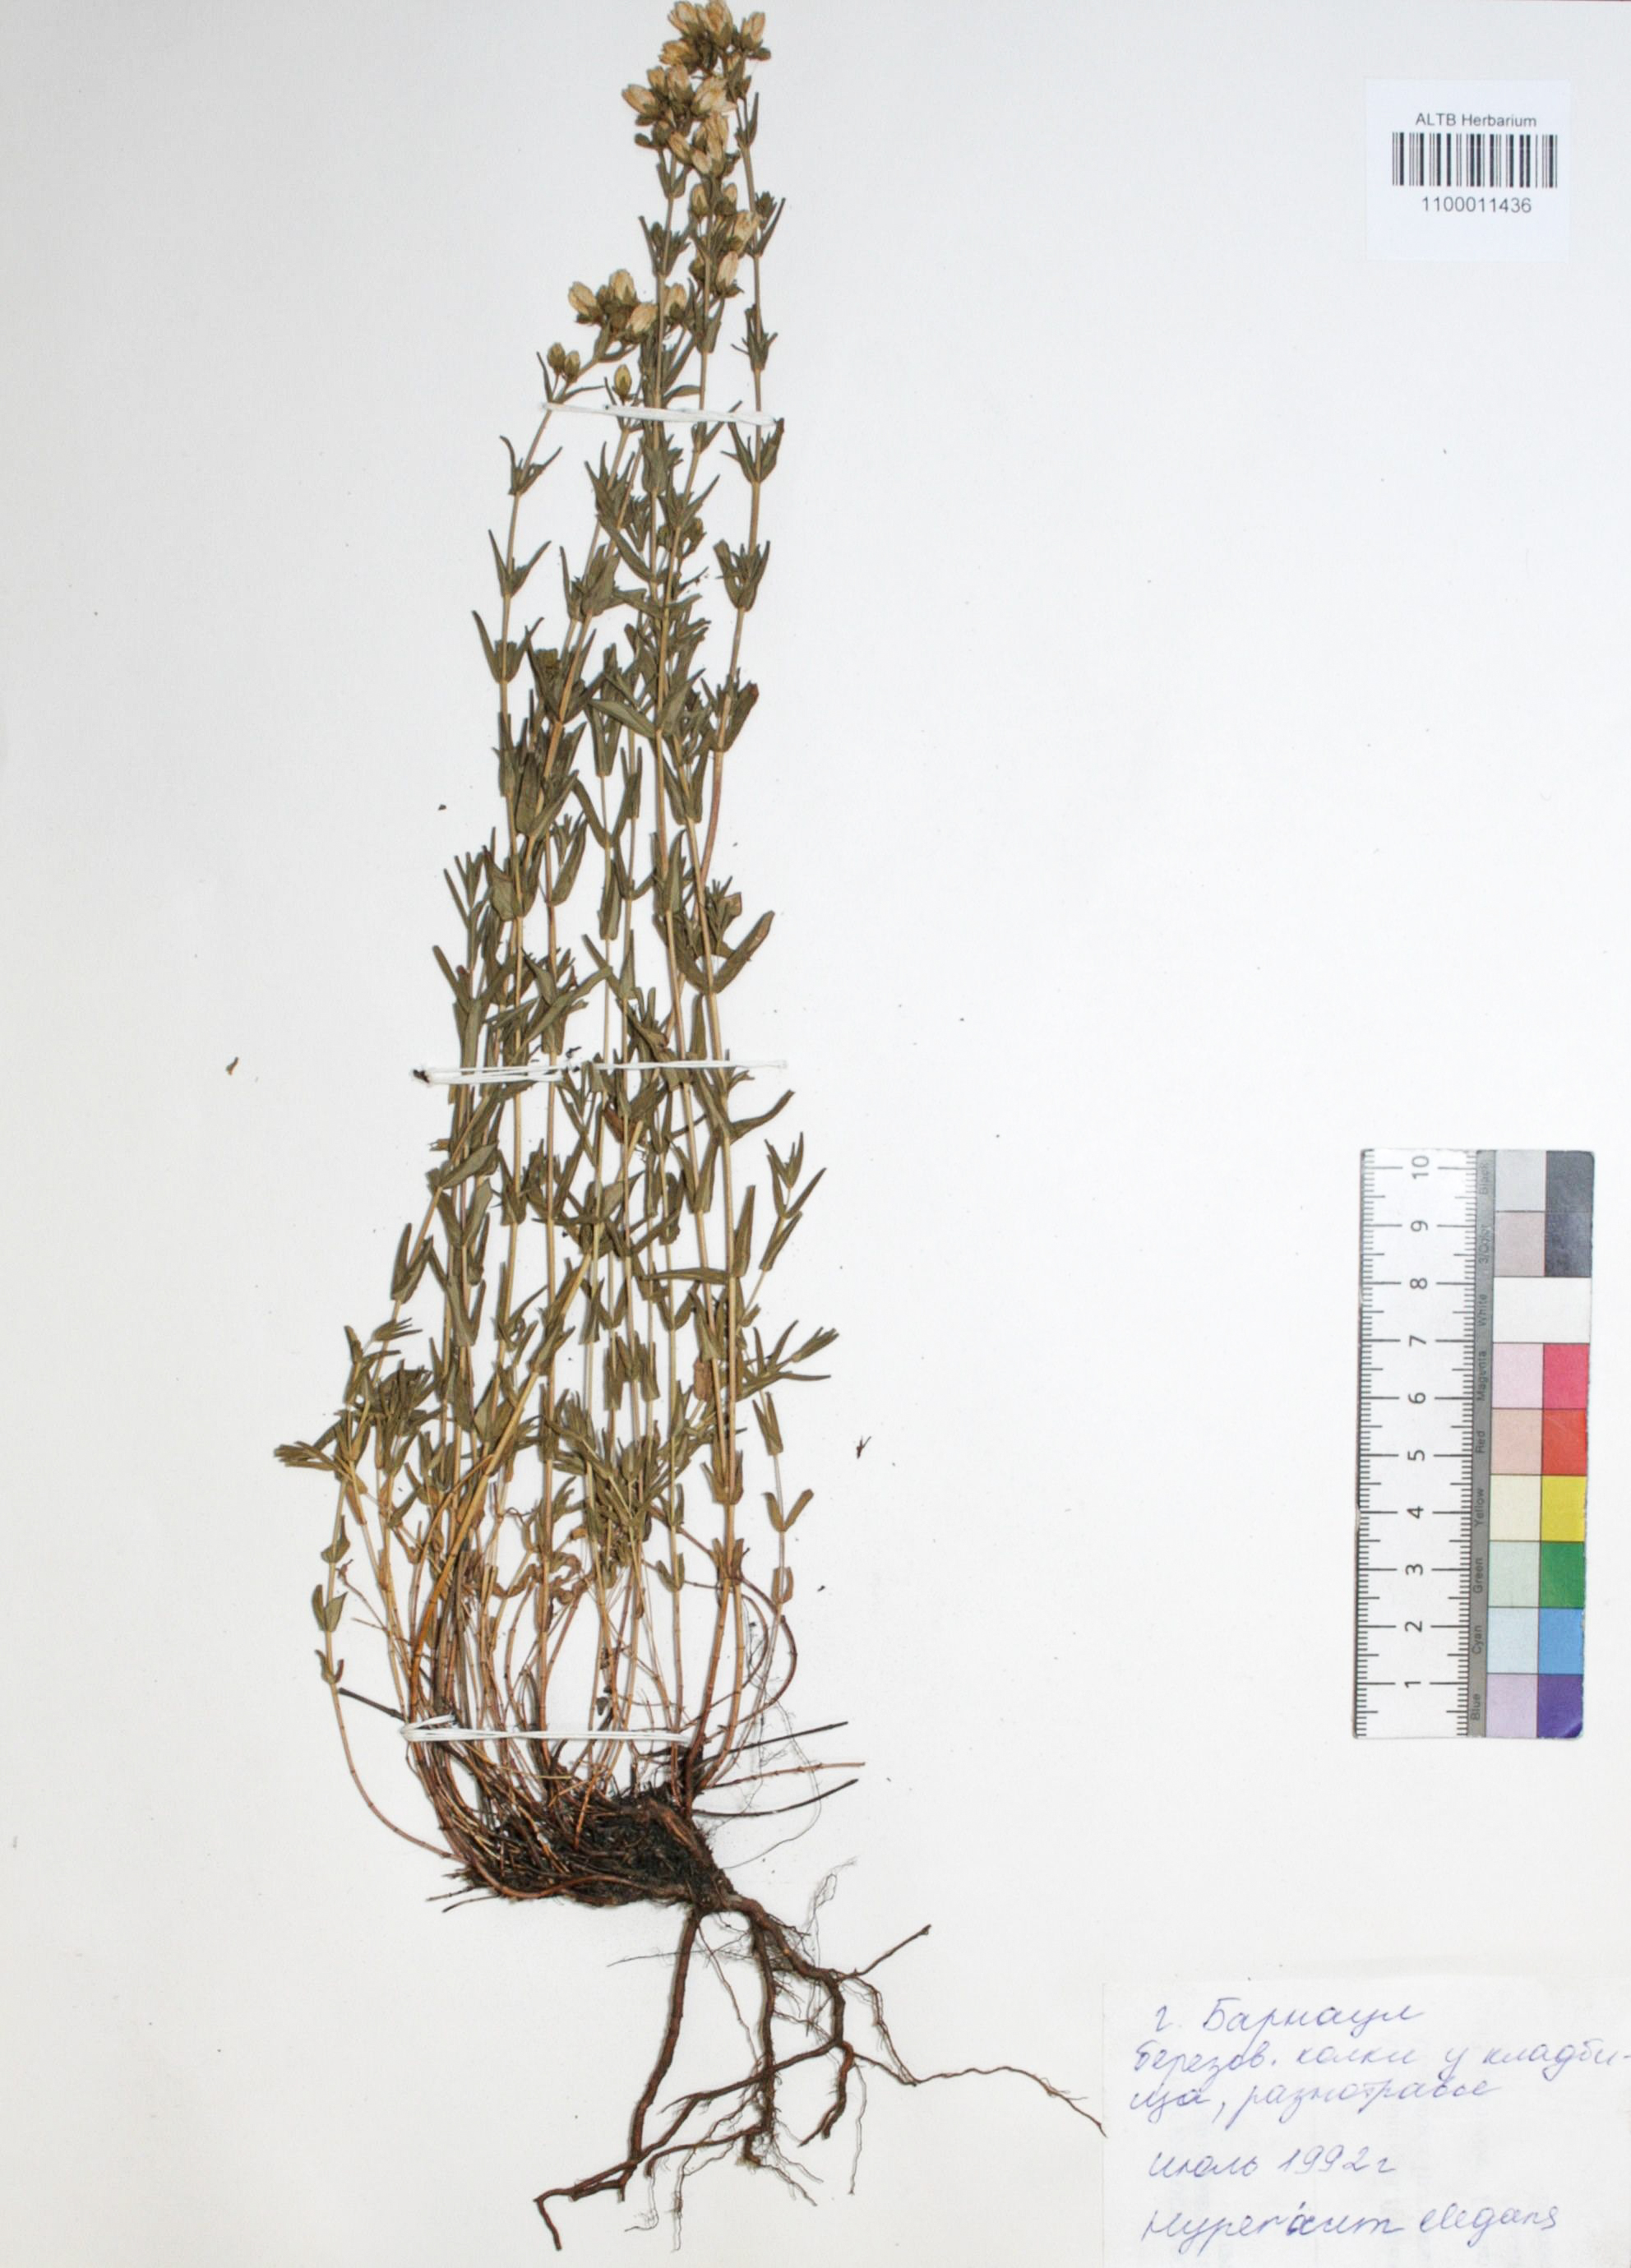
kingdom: Plantae
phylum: Tracheophyta
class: Magnoliopsida
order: Malpighiales
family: Hypericaceae
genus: Hypericum
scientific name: Hypericum elegans
